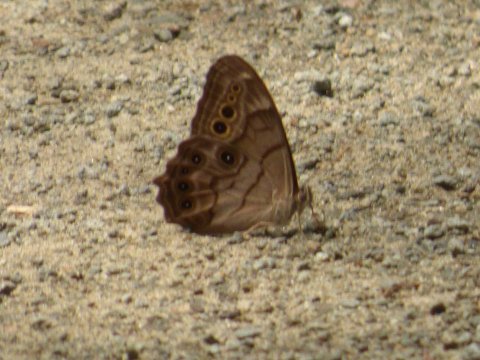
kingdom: Animalia
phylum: Arthropoda
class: Insecta
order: Lepidoptera
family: Nymphalidae
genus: Lethe
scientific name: Lethe anthedon
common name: Northern Pearly-Eye
